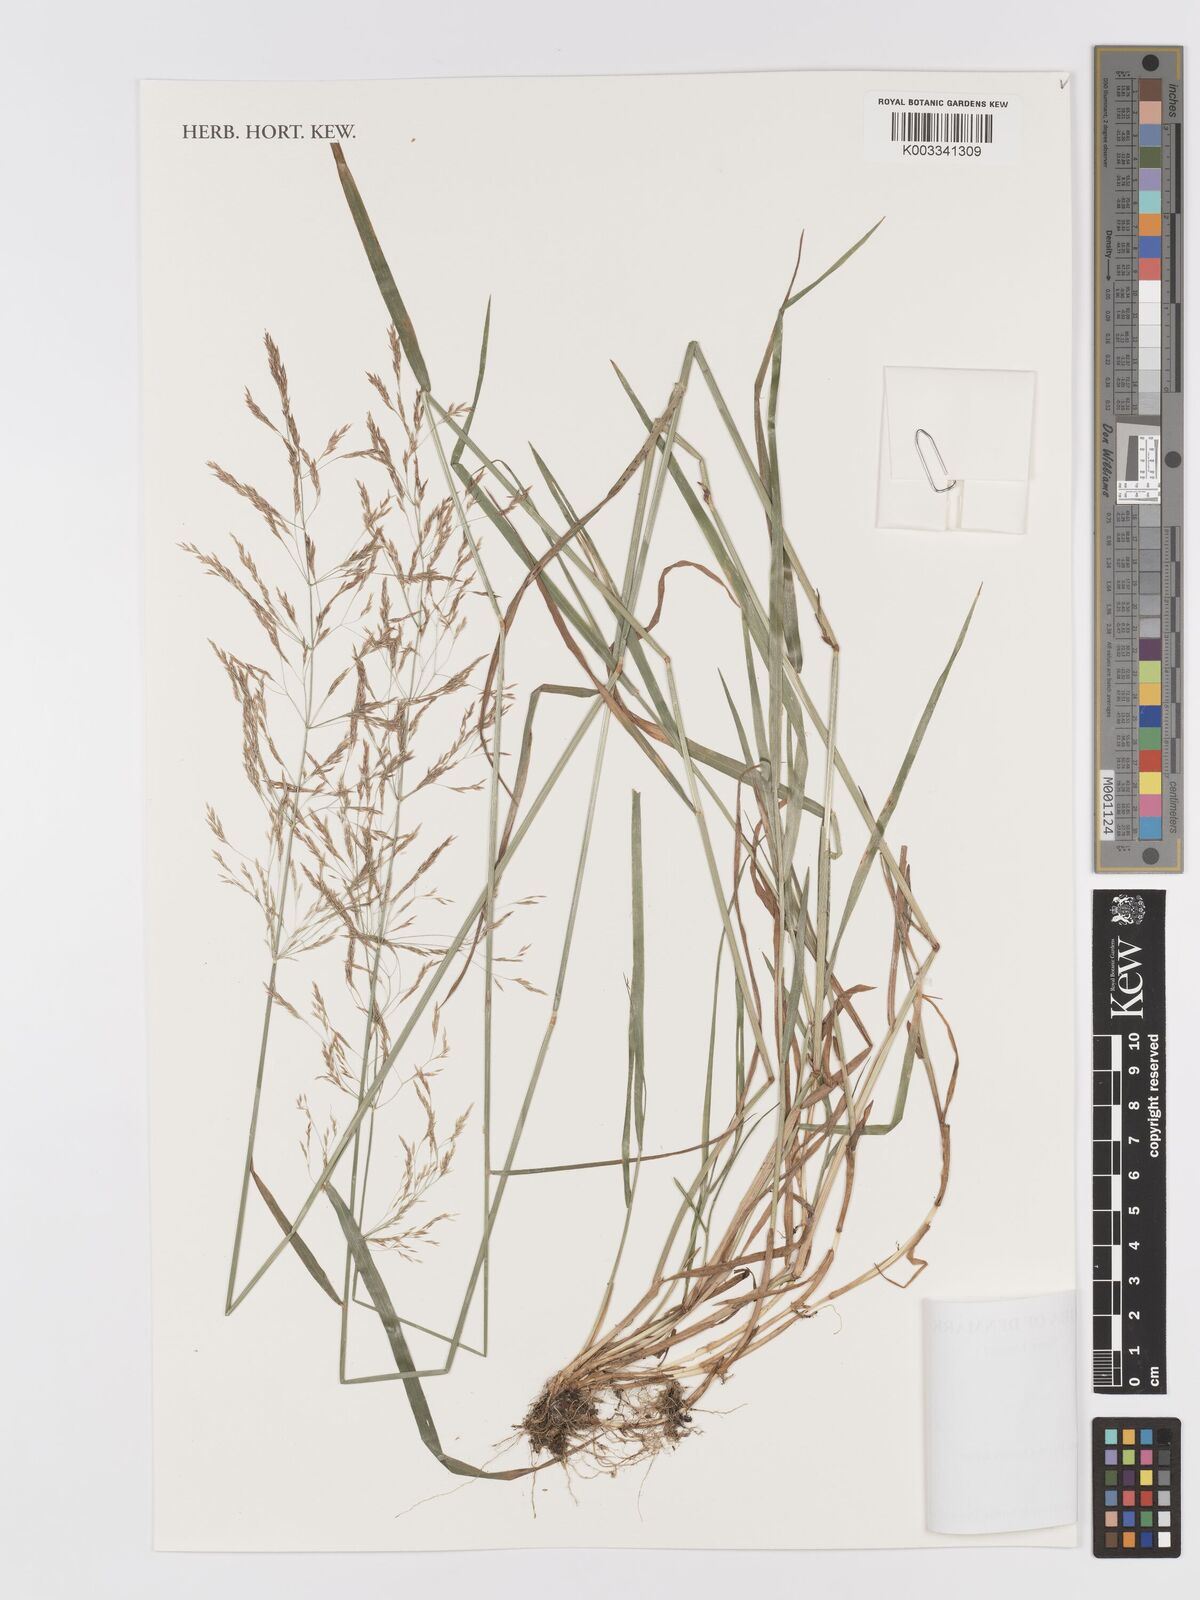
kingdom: Plantae
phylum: Tracheophyta
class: Liliopsida
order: Poales
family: Poaceae
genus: Agrostis
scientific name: Agrostis gigantea
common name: Black bent
